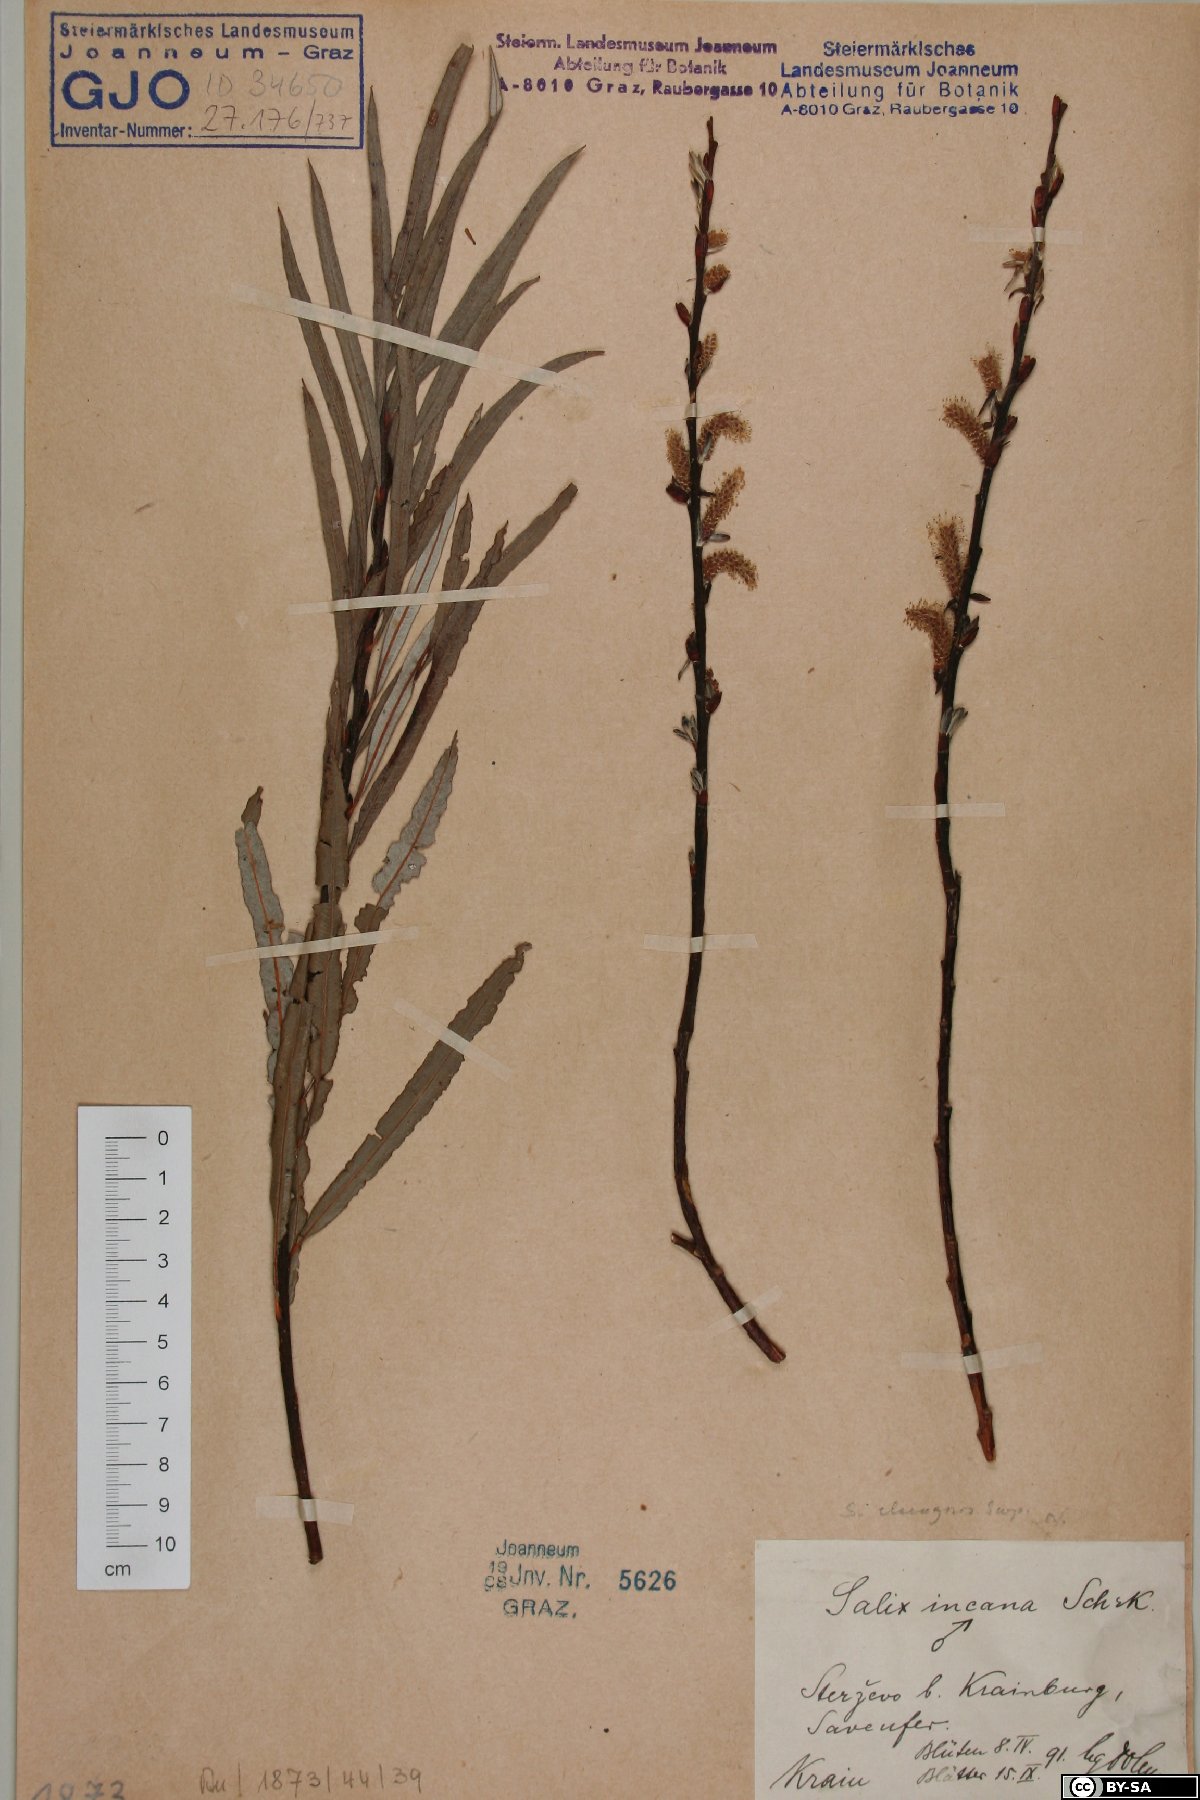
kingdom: Plantae
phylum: Tracheophyta
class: Magnoliopsida
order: Malpighiales
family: Salicaceae
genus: Salix
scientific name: Salix eleagnos
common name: Elaeagnus willow
